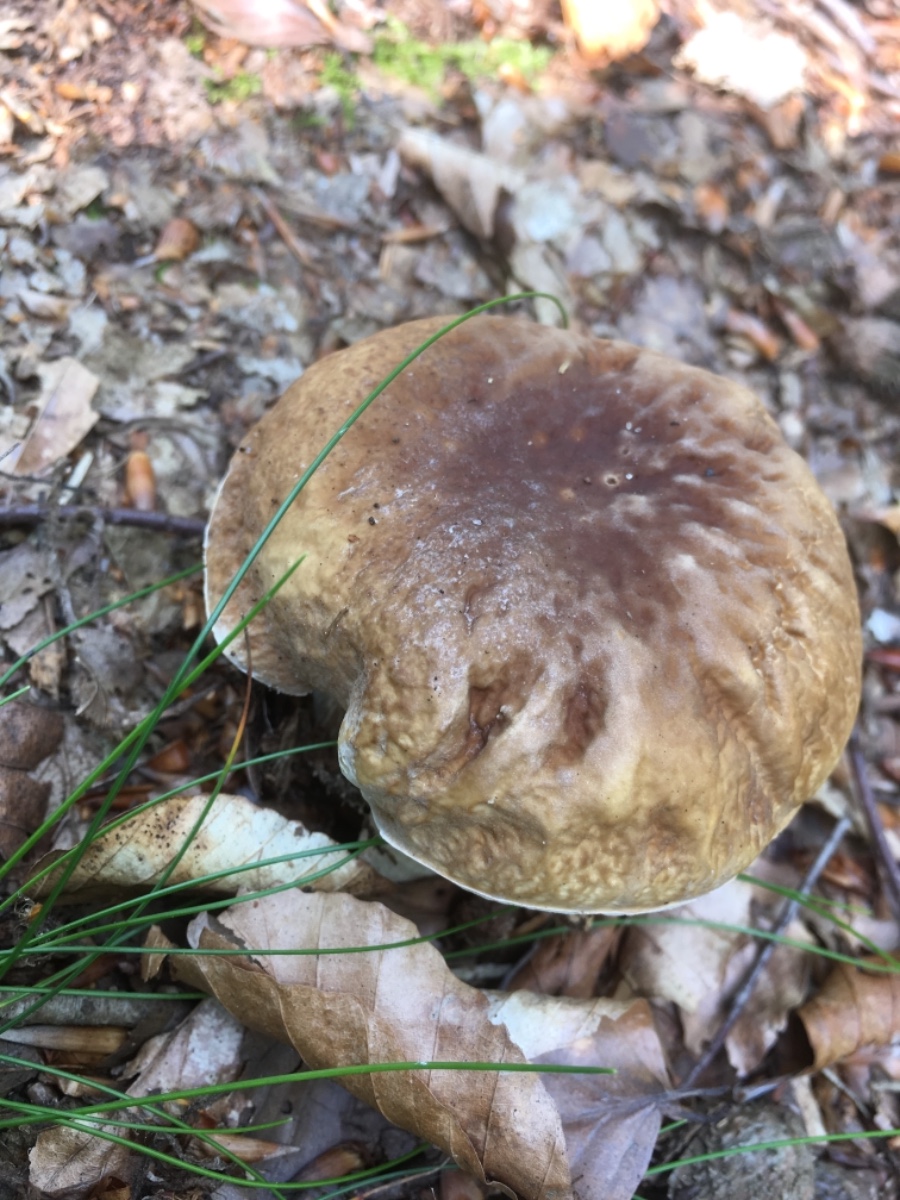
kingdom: Fungi
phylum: Basidiomycota
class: Agaricomycetes
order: Boletales
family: Boletaceae
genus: Boletus
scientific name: Boletus edulis
